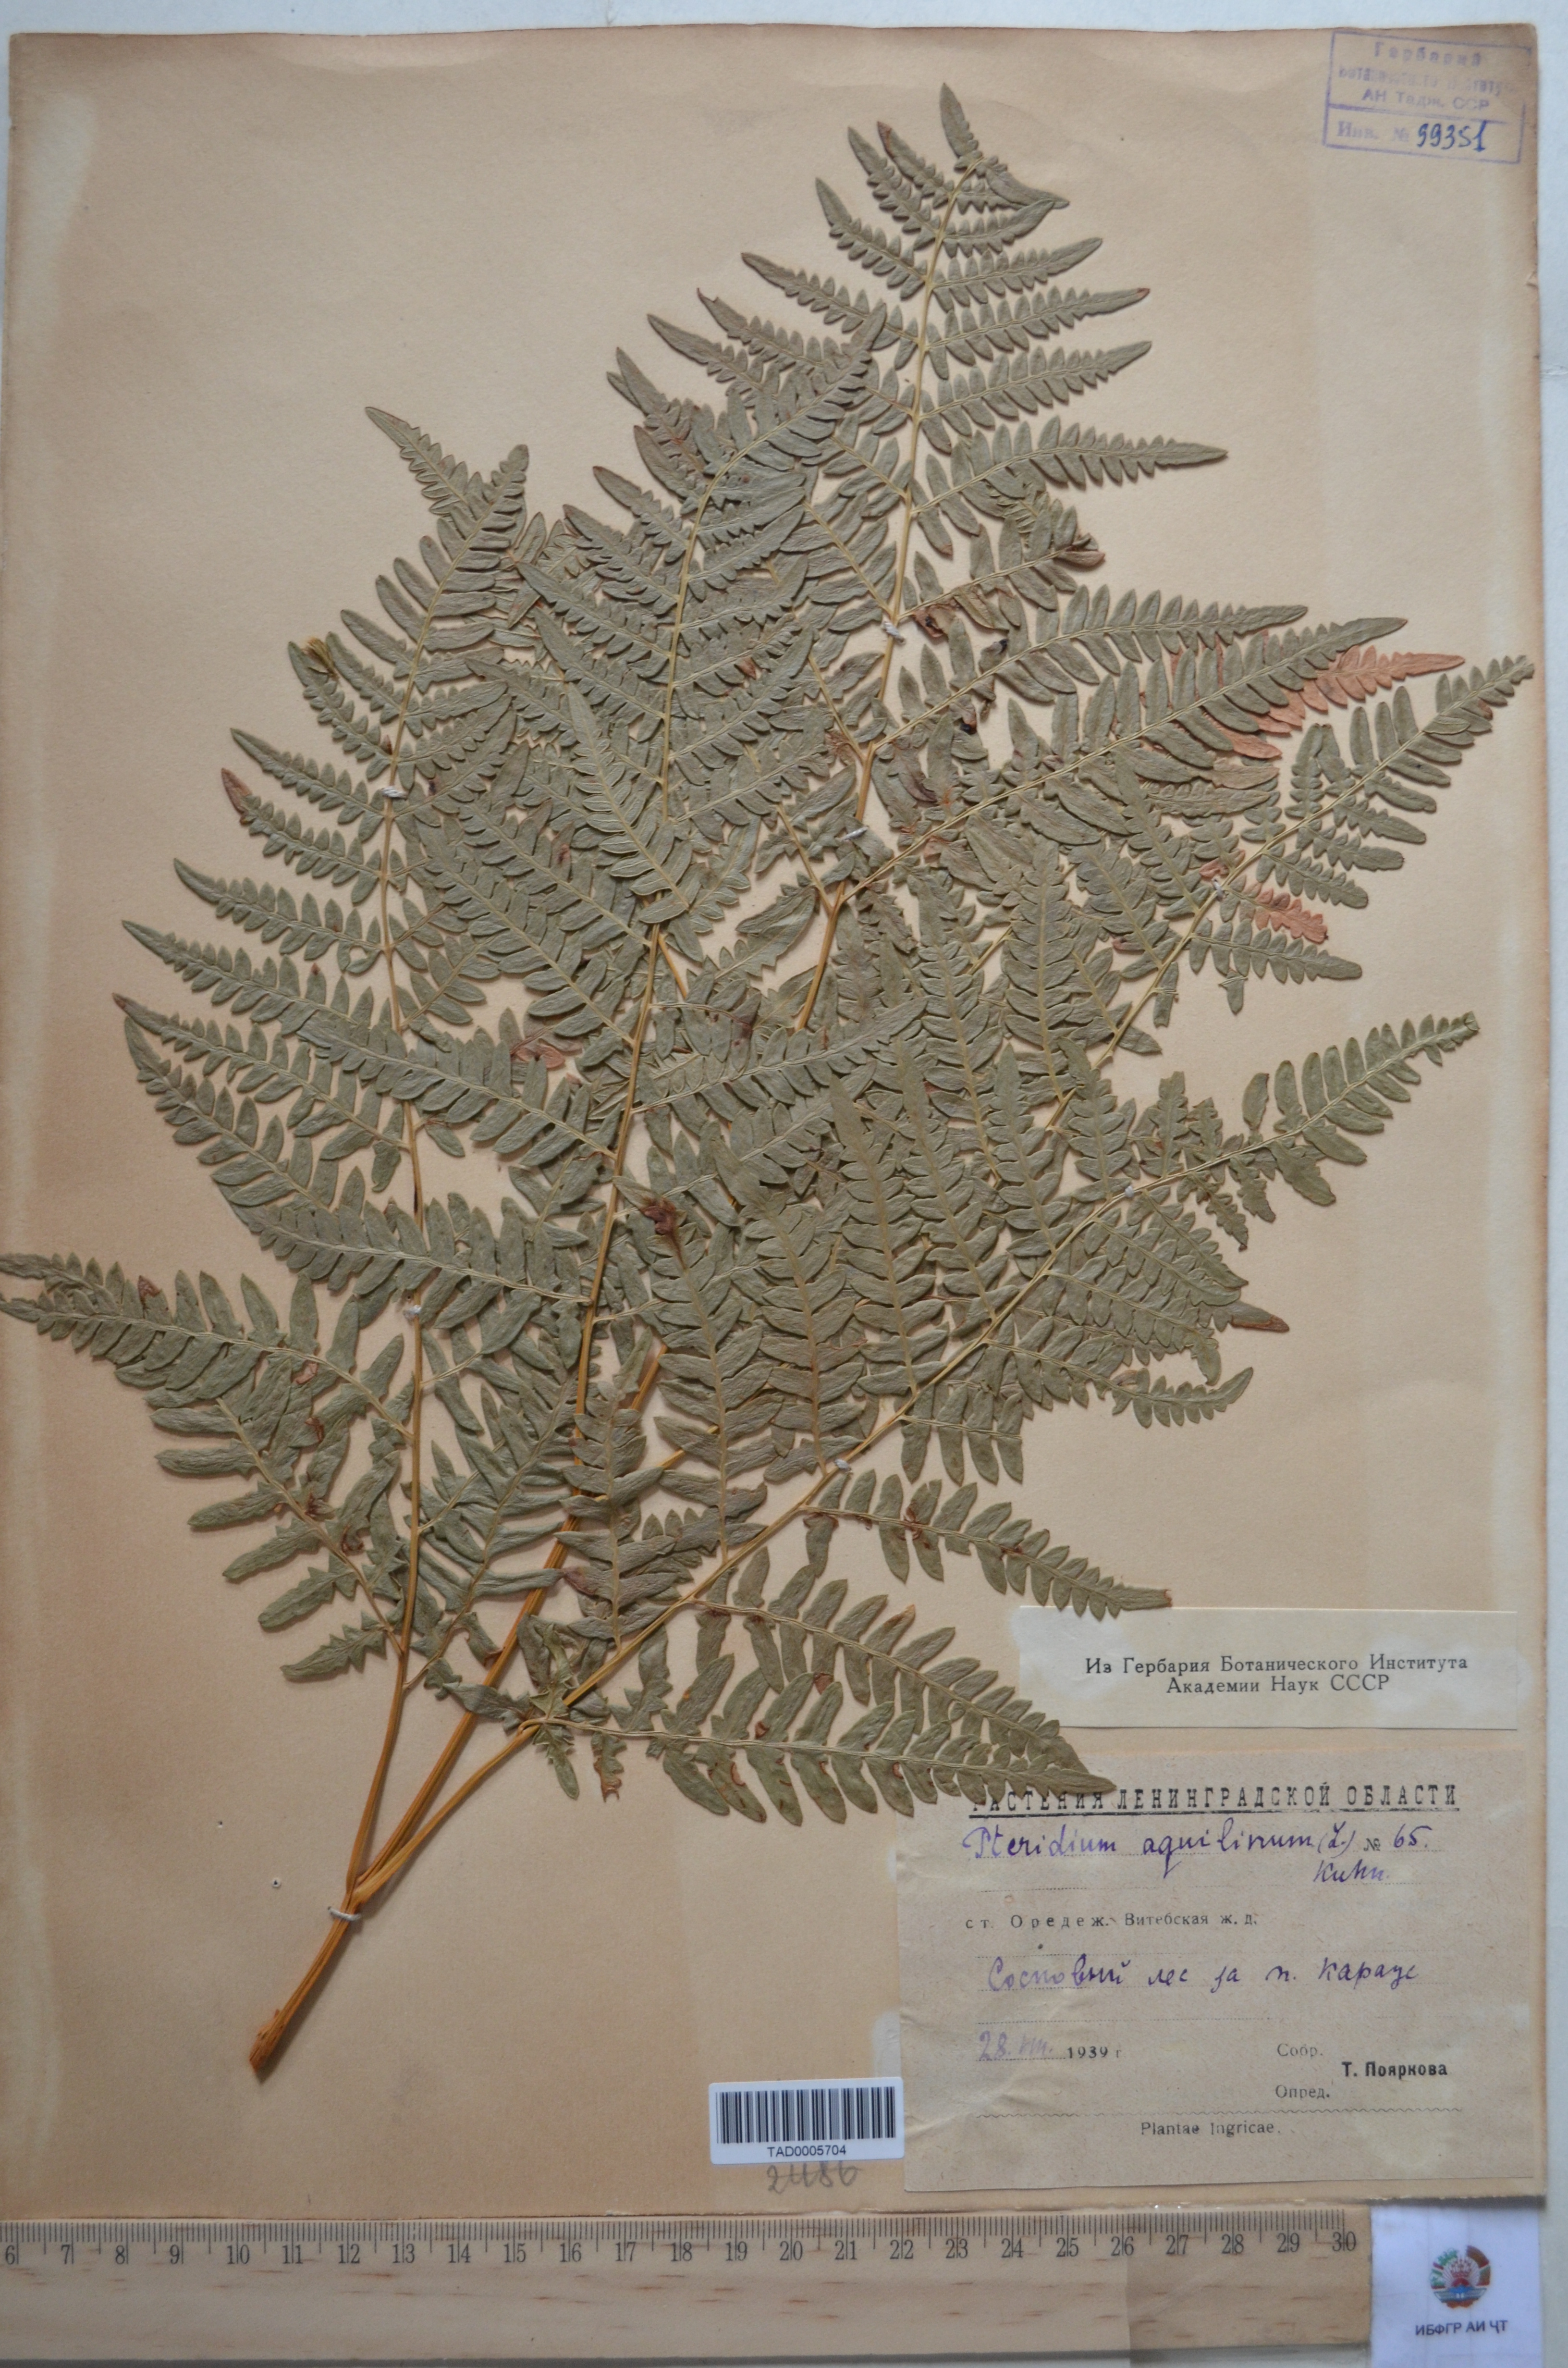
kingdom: Plantae
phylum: Tracheophyta
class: Magnoliopsida
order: Nymphaeales
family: Cabombaceae
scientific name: Cabombaceae
